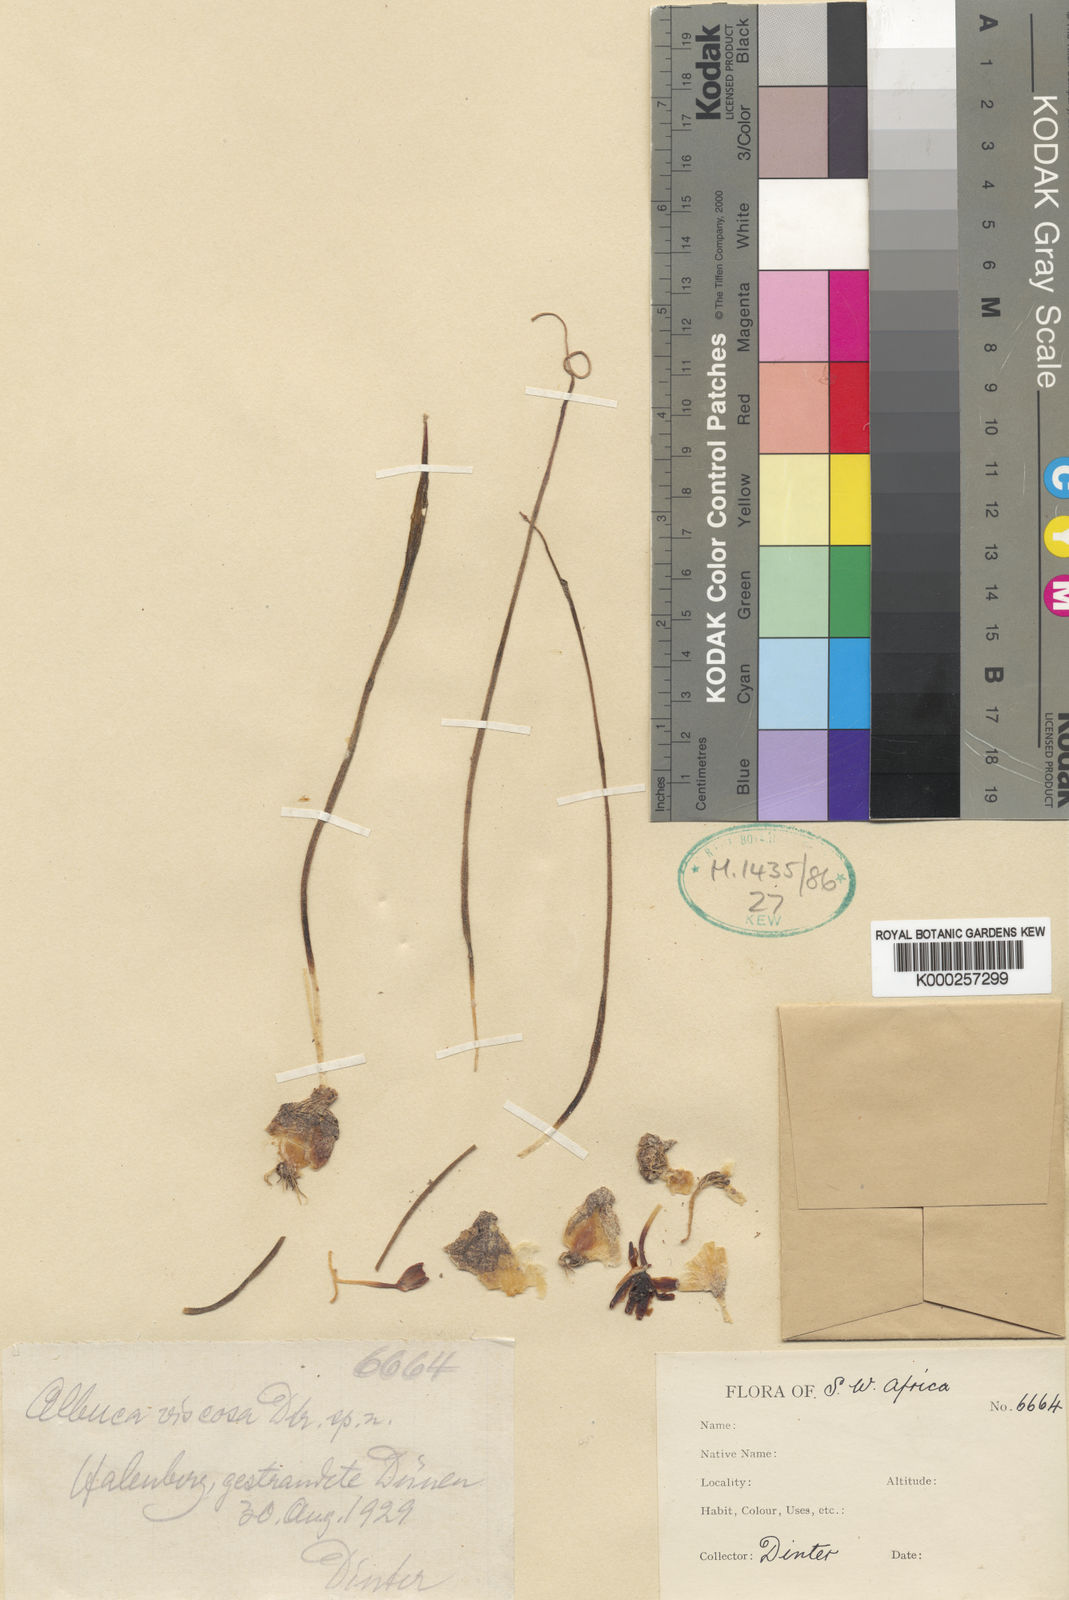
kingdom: Plantae
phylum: Tracheophyta
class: Liliopsida
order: Asparagales
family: Asparagaceae
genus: Albuca
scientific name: Albuca
